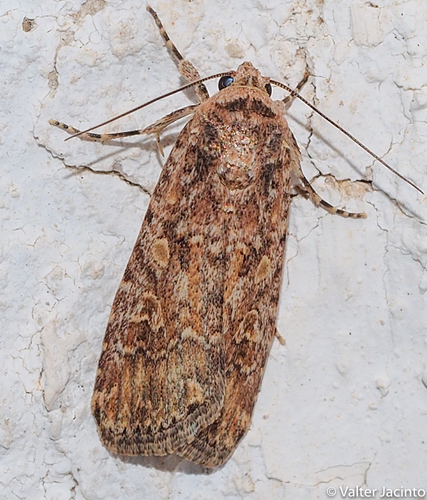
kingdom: Animalia
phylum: Arthropoda
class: Insecta
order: Lepidoptera
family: Noctuidae
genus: Spodoptera
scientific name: Spodoptera exigua
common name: Beet armyworm
